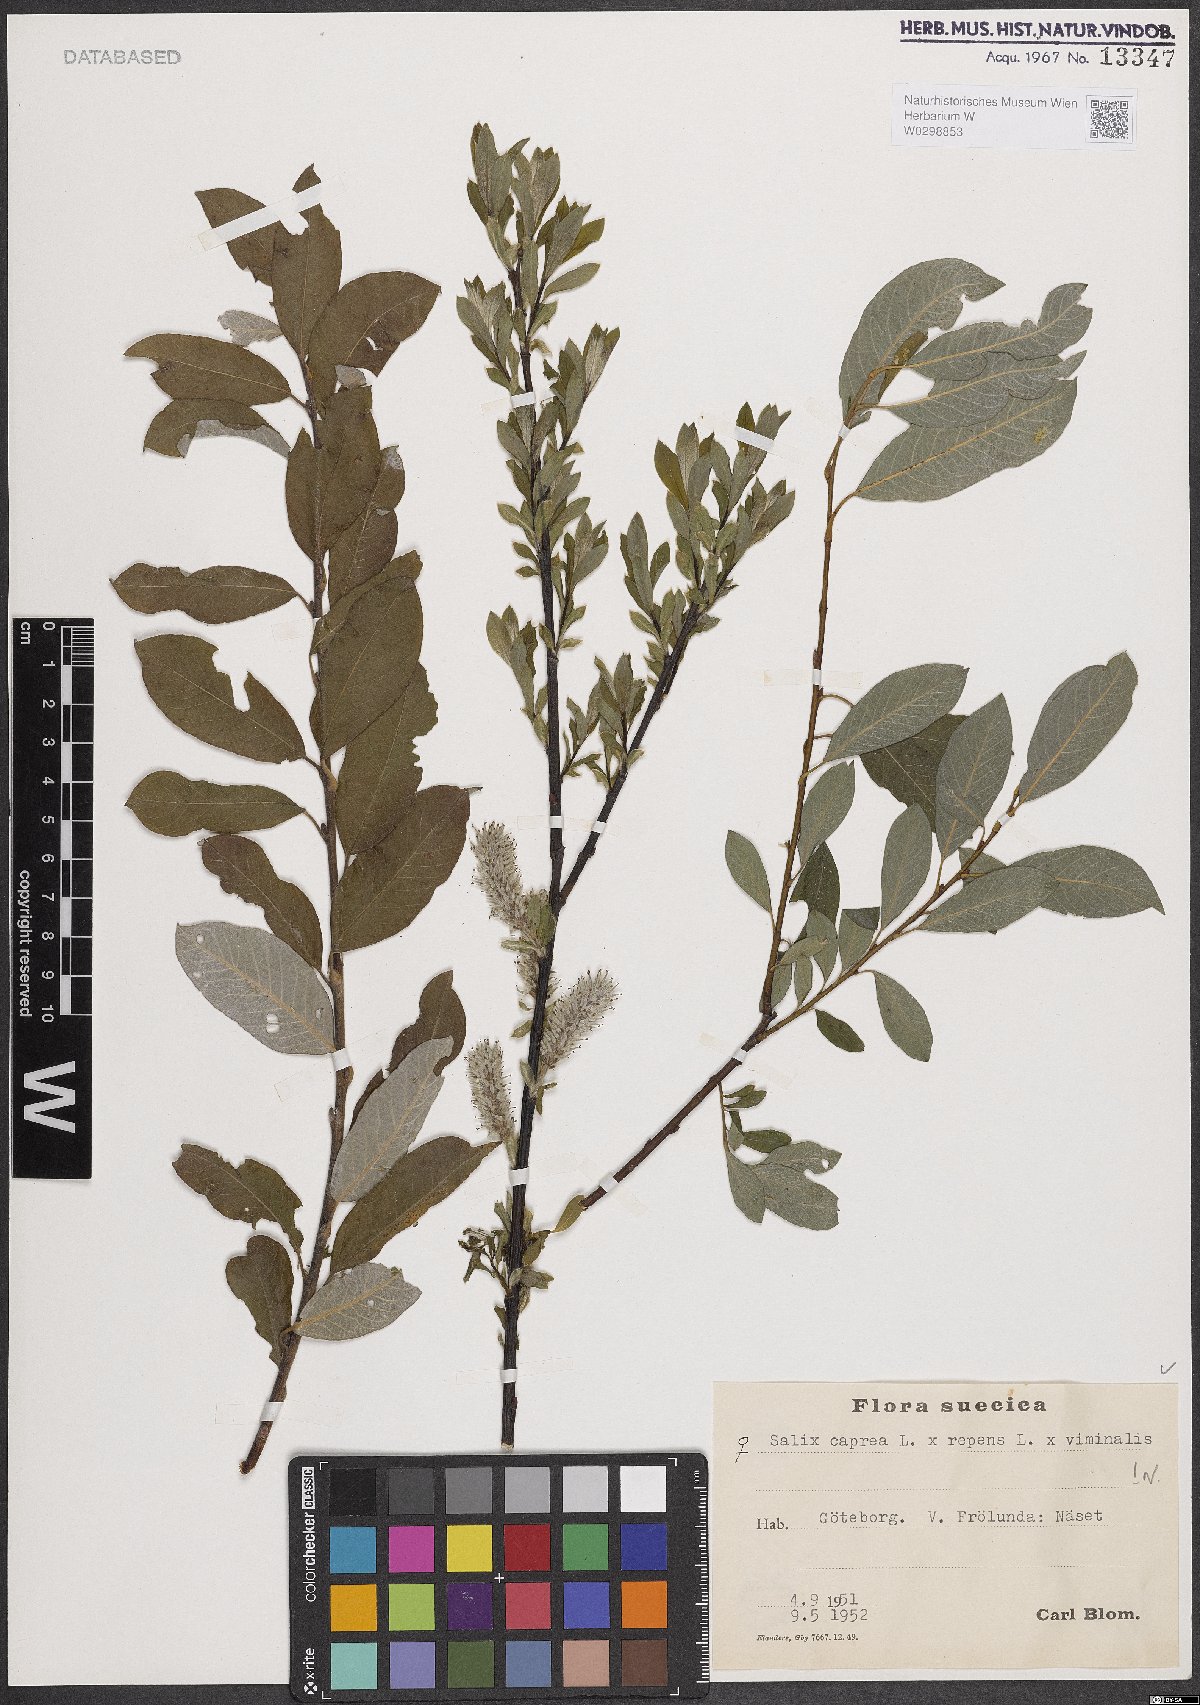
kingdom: Plantae
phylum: Tracheophyta
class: Magnoliopsida
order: Malpighiales
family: Salicaceae
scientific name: Salicaceae
